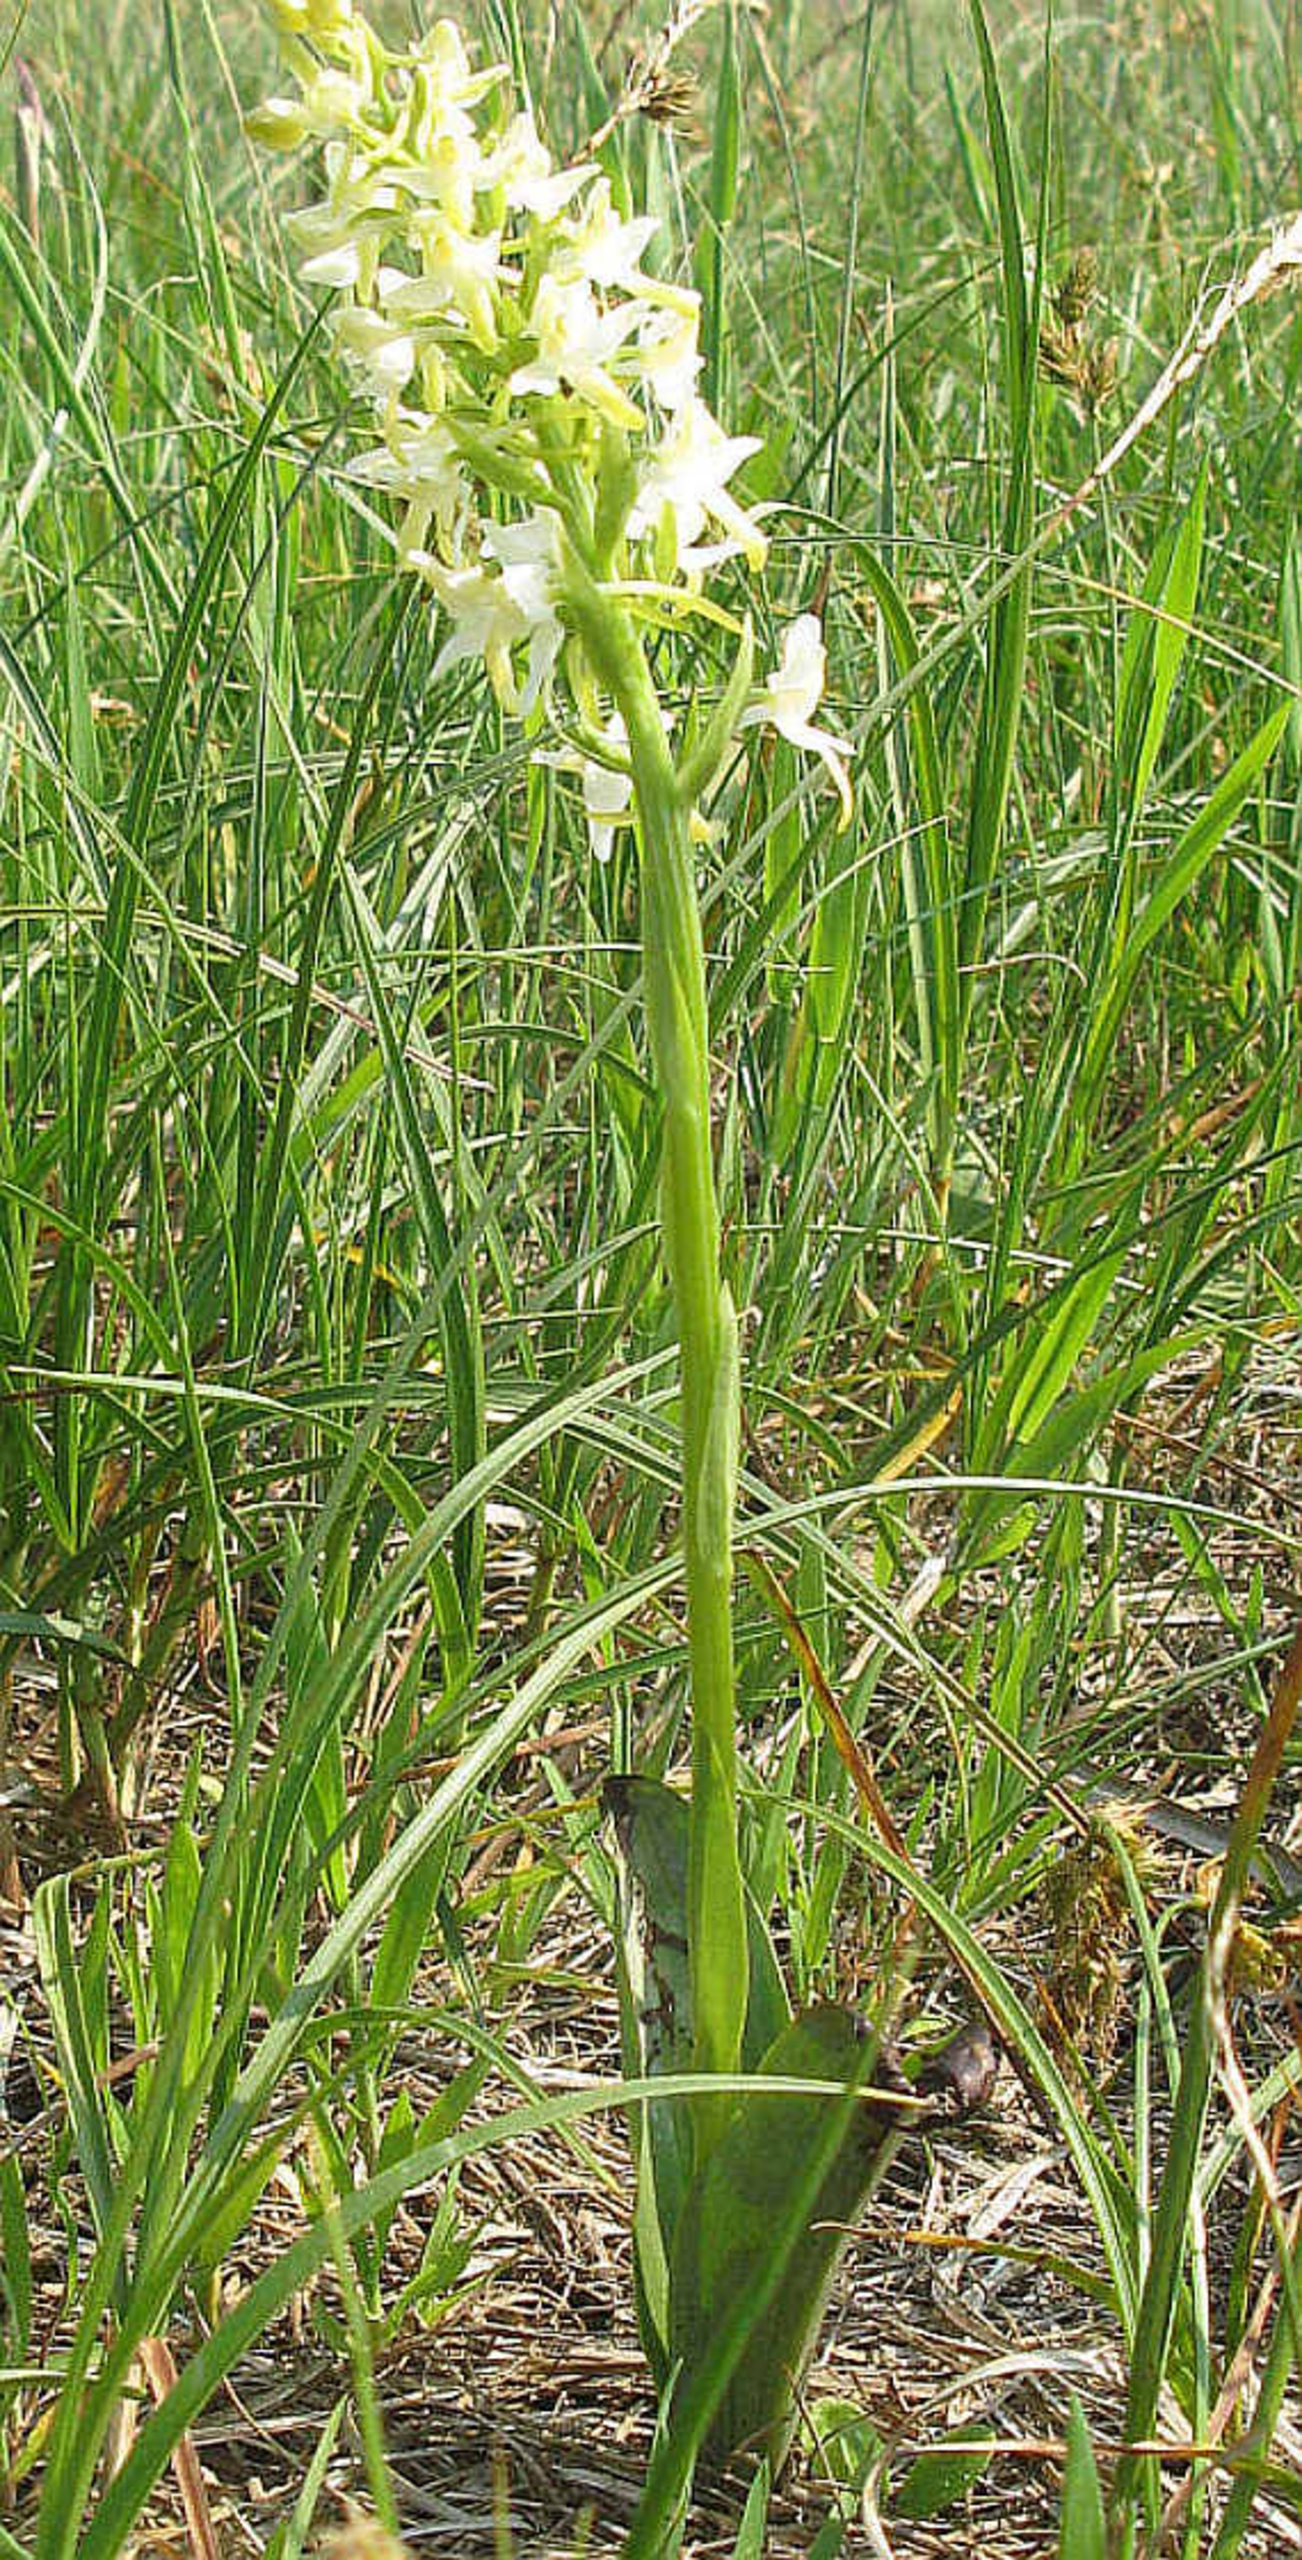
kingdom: Plantae
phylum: Tracheophyta
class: Liliopsida
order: Asparagales
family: Orchidaceae
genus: Platanthera
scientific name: Platanthera bifolia
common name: Bakke-gøgelilje
